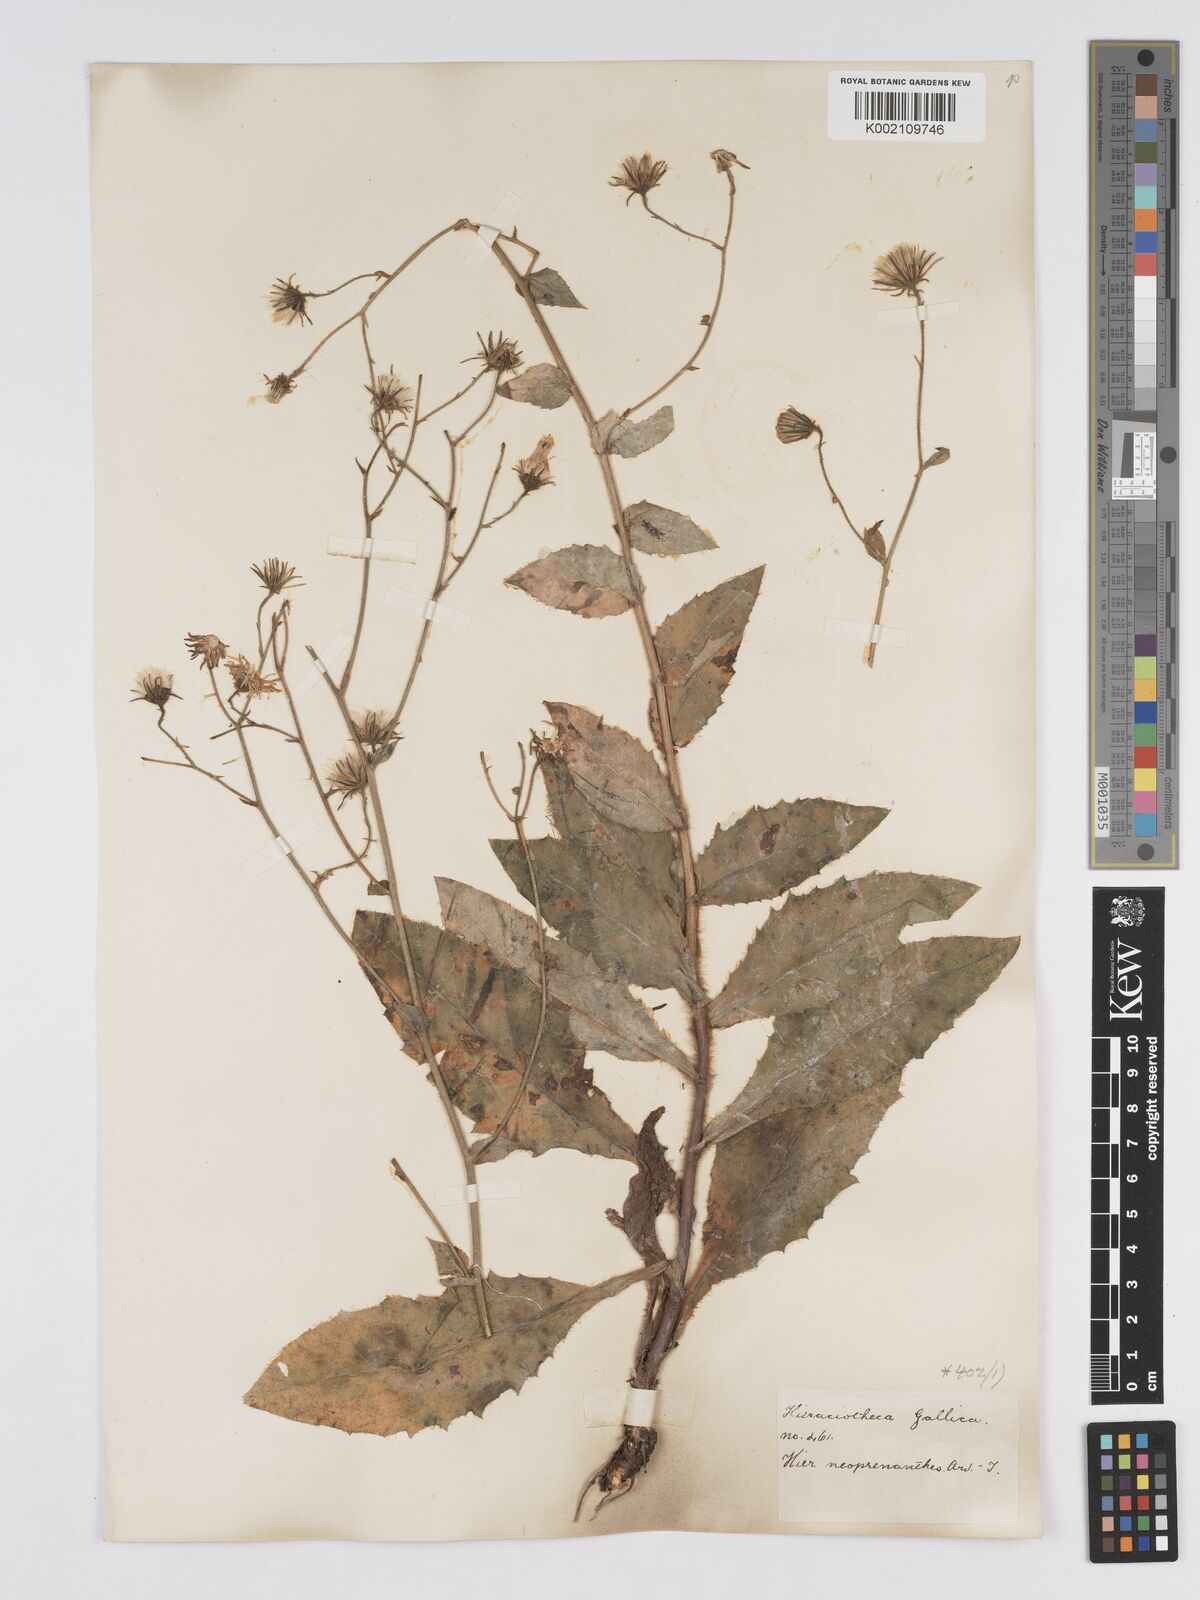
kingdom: Plantae
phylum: Tracheophyta
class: Magnoliopsida
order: Asterales
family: Asteraceae
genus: Hieracium
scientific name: Hieracium symphytaceum
